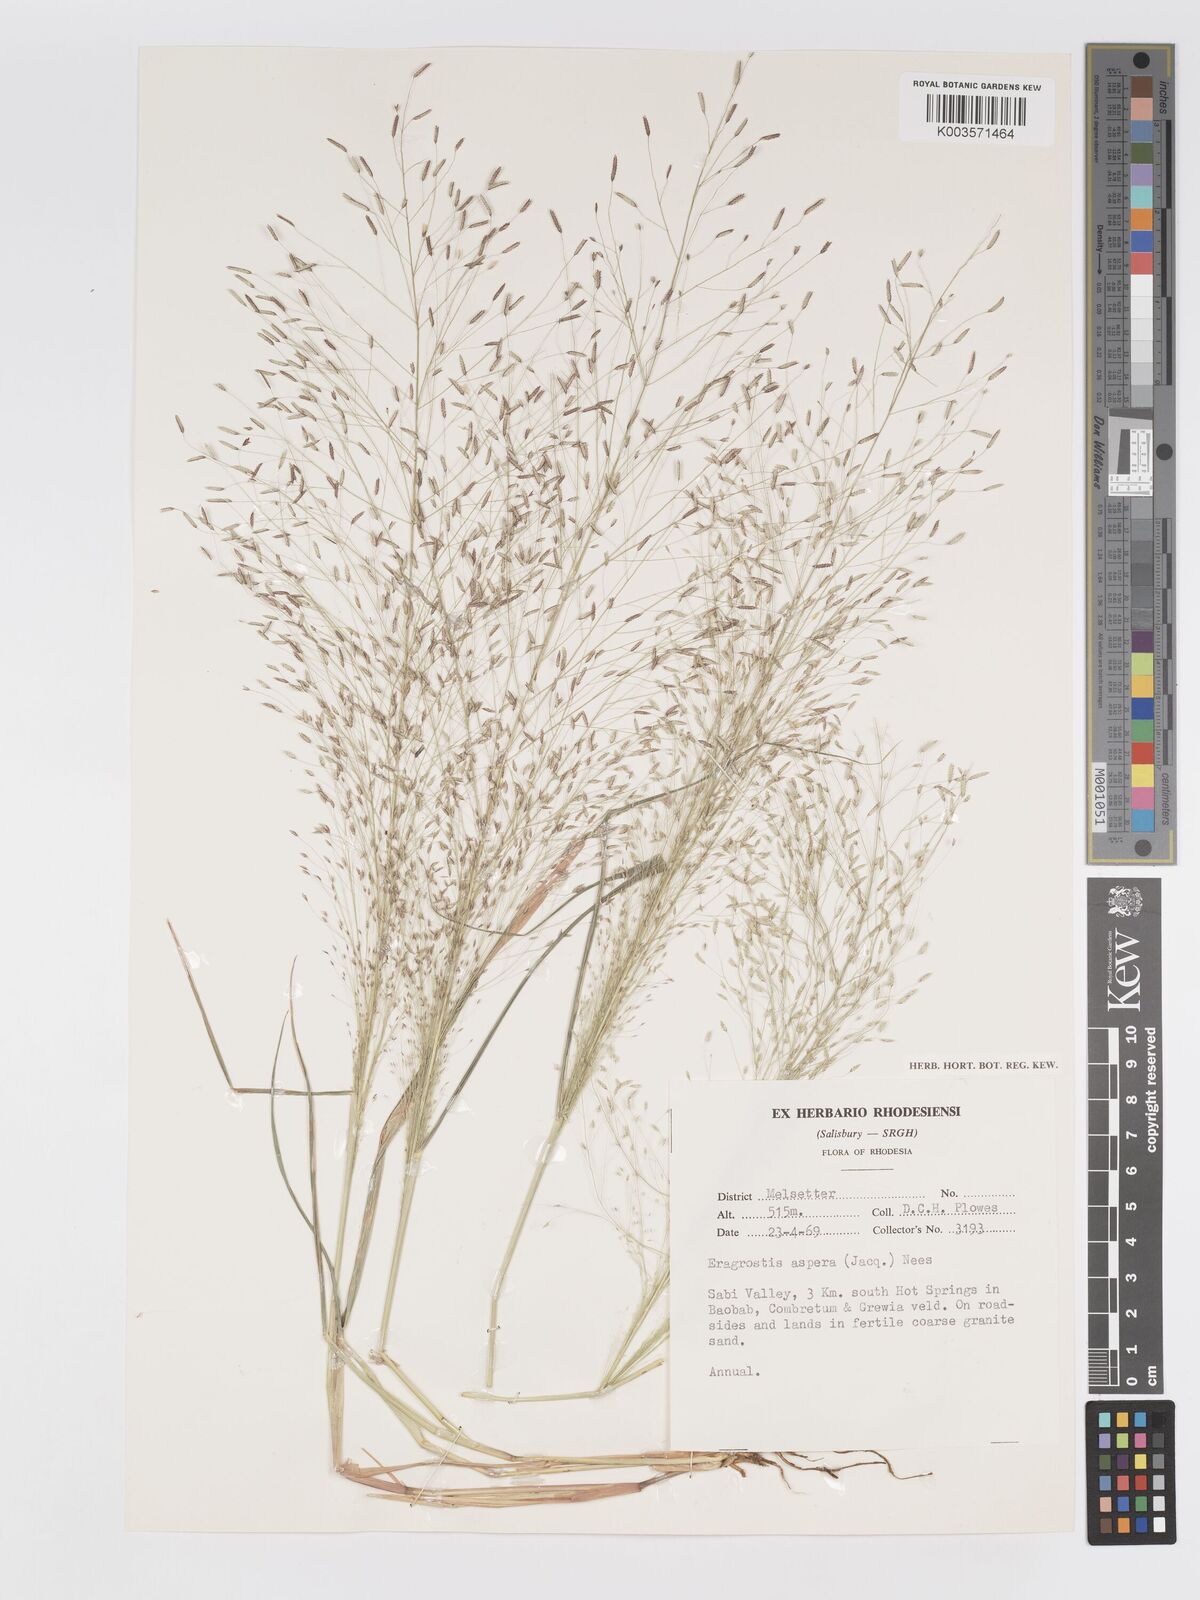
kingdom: Plantae
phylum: Tracheophyta
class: Liliopsida
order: Poales
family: Poaceae
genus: Eragrostis
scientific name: Eragrostis aspera
